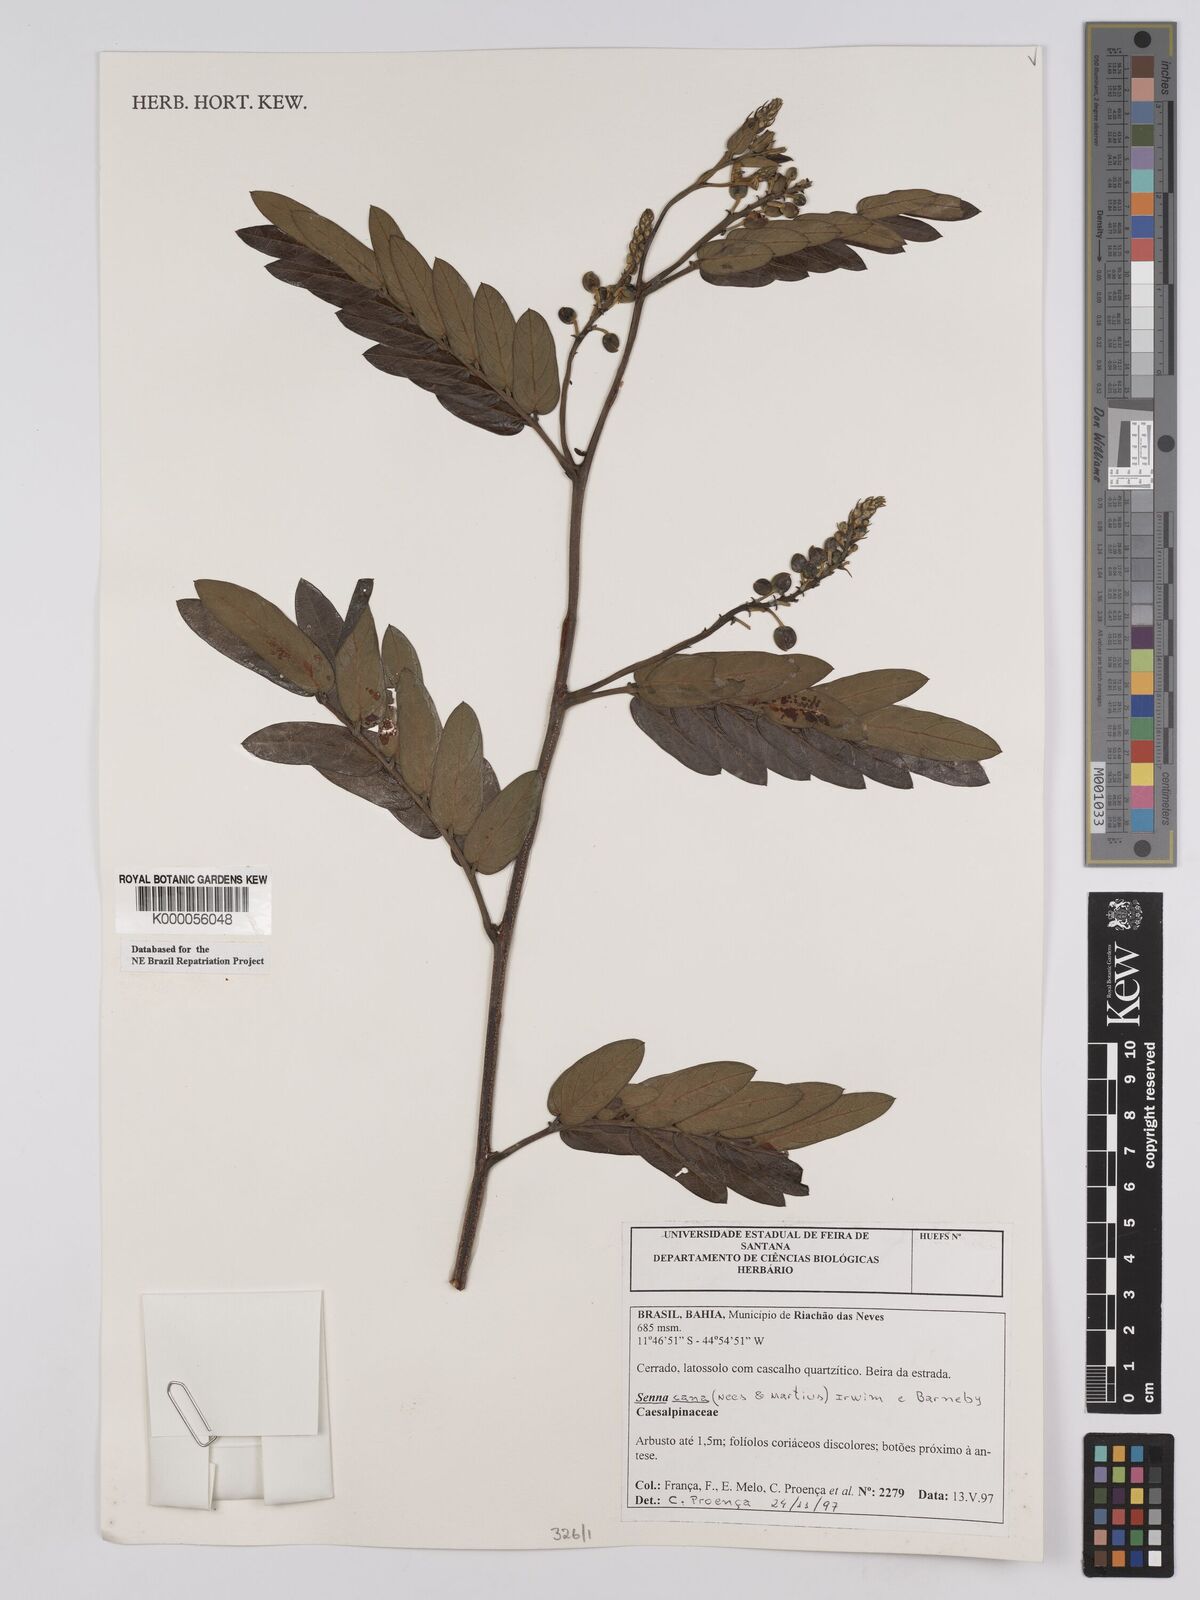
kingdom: Plantae
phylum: Tracheophyta
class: Magnoliopsida
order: Fabales
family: Fabaceae
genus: Senna
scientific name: Senna cana
